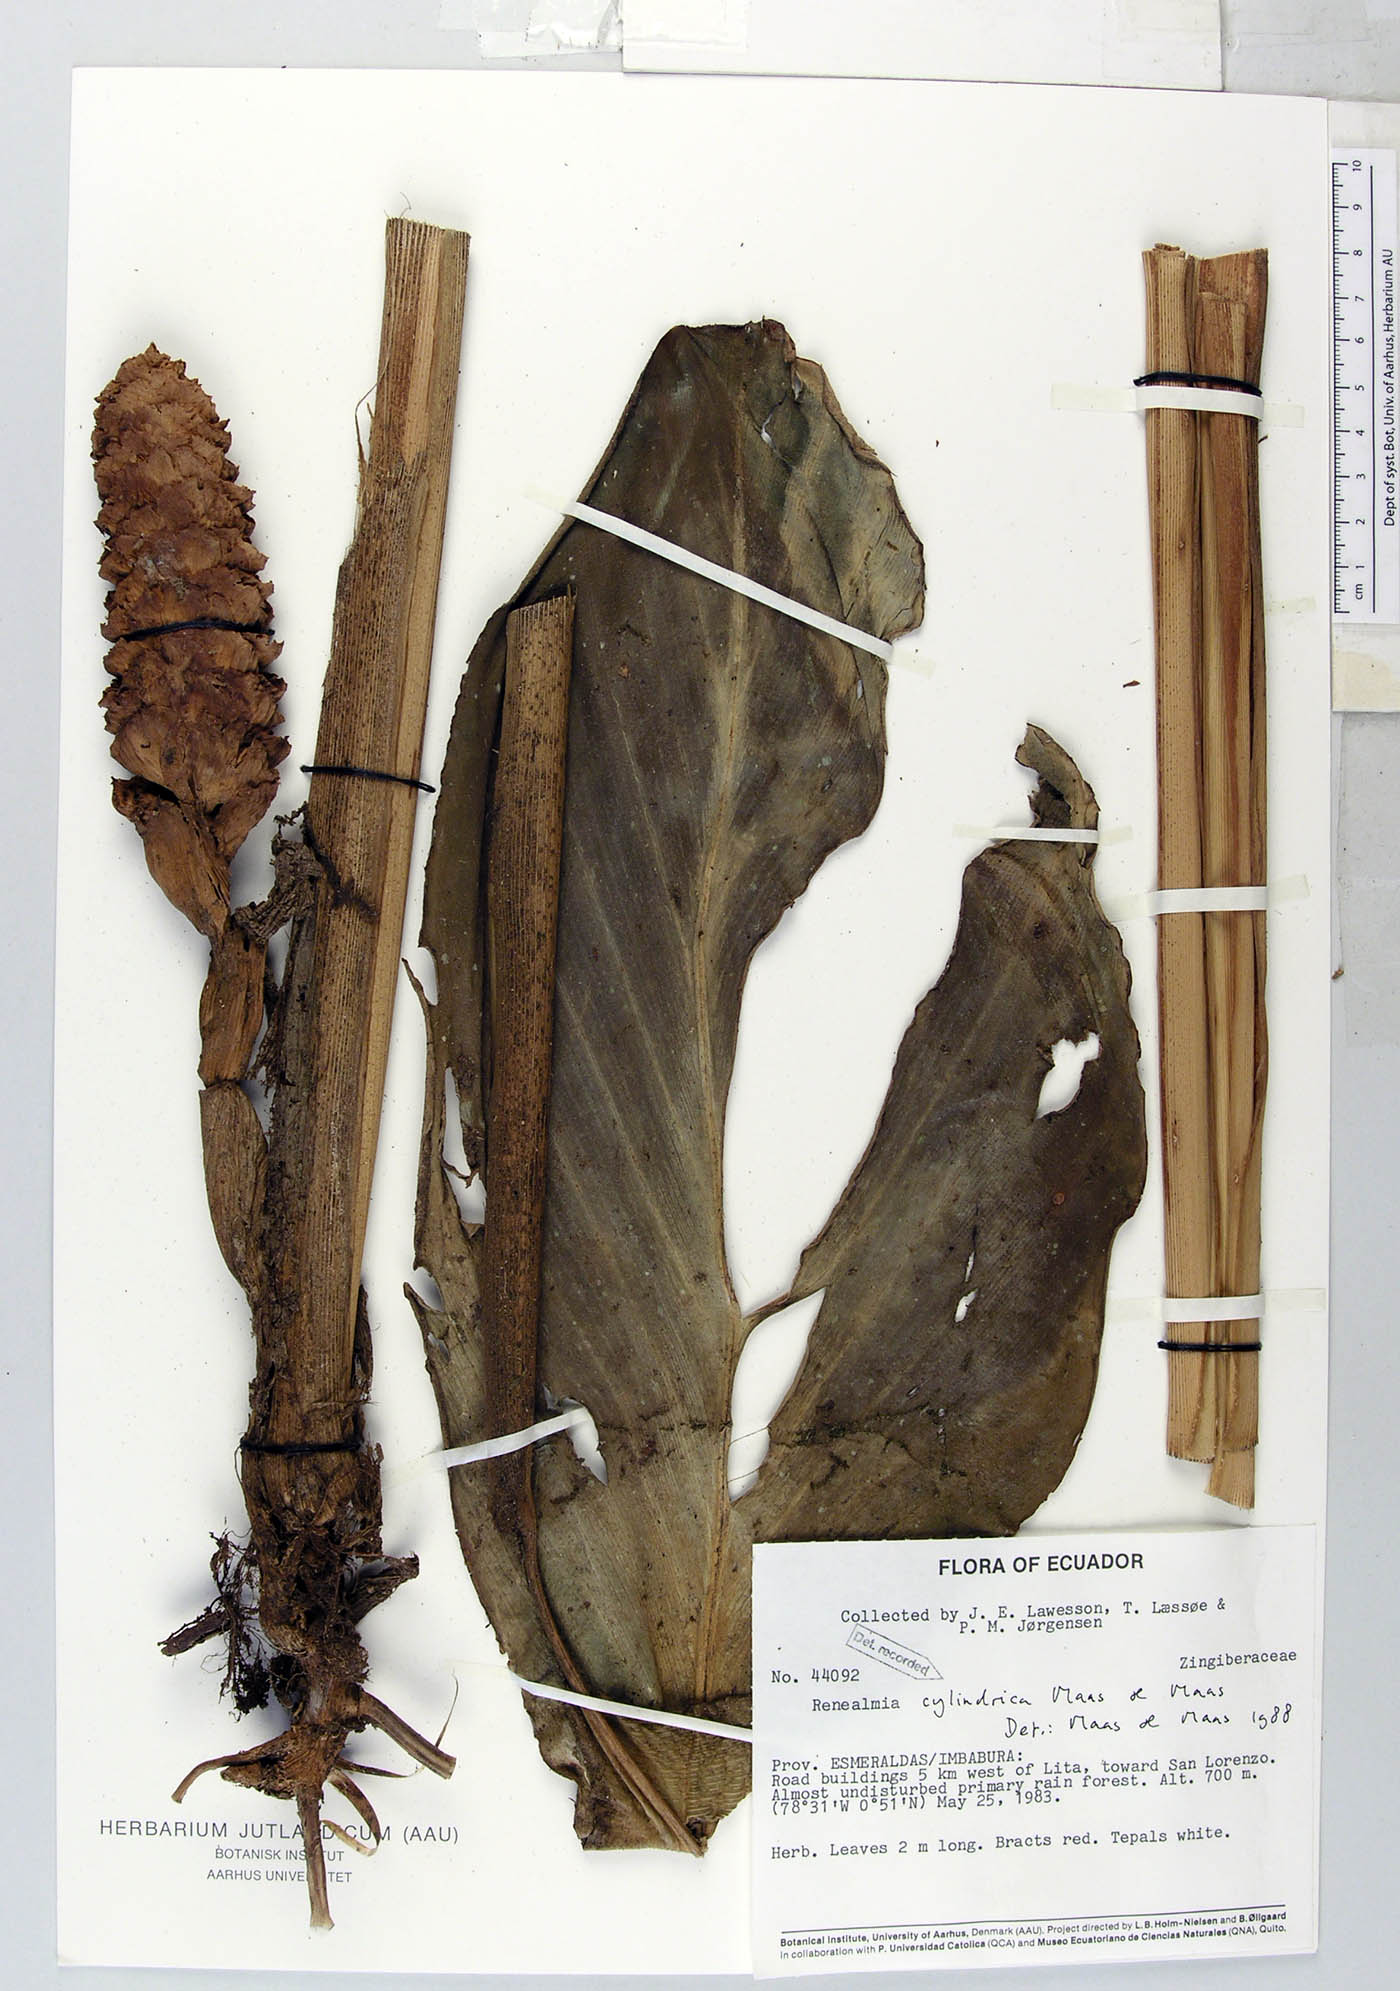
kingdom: Plantae
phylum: Tracheophyta
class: Liliopsida
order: Zingiberales
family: Zingiberaceae
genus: Renealmia
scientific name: Renealmia cylindrica
